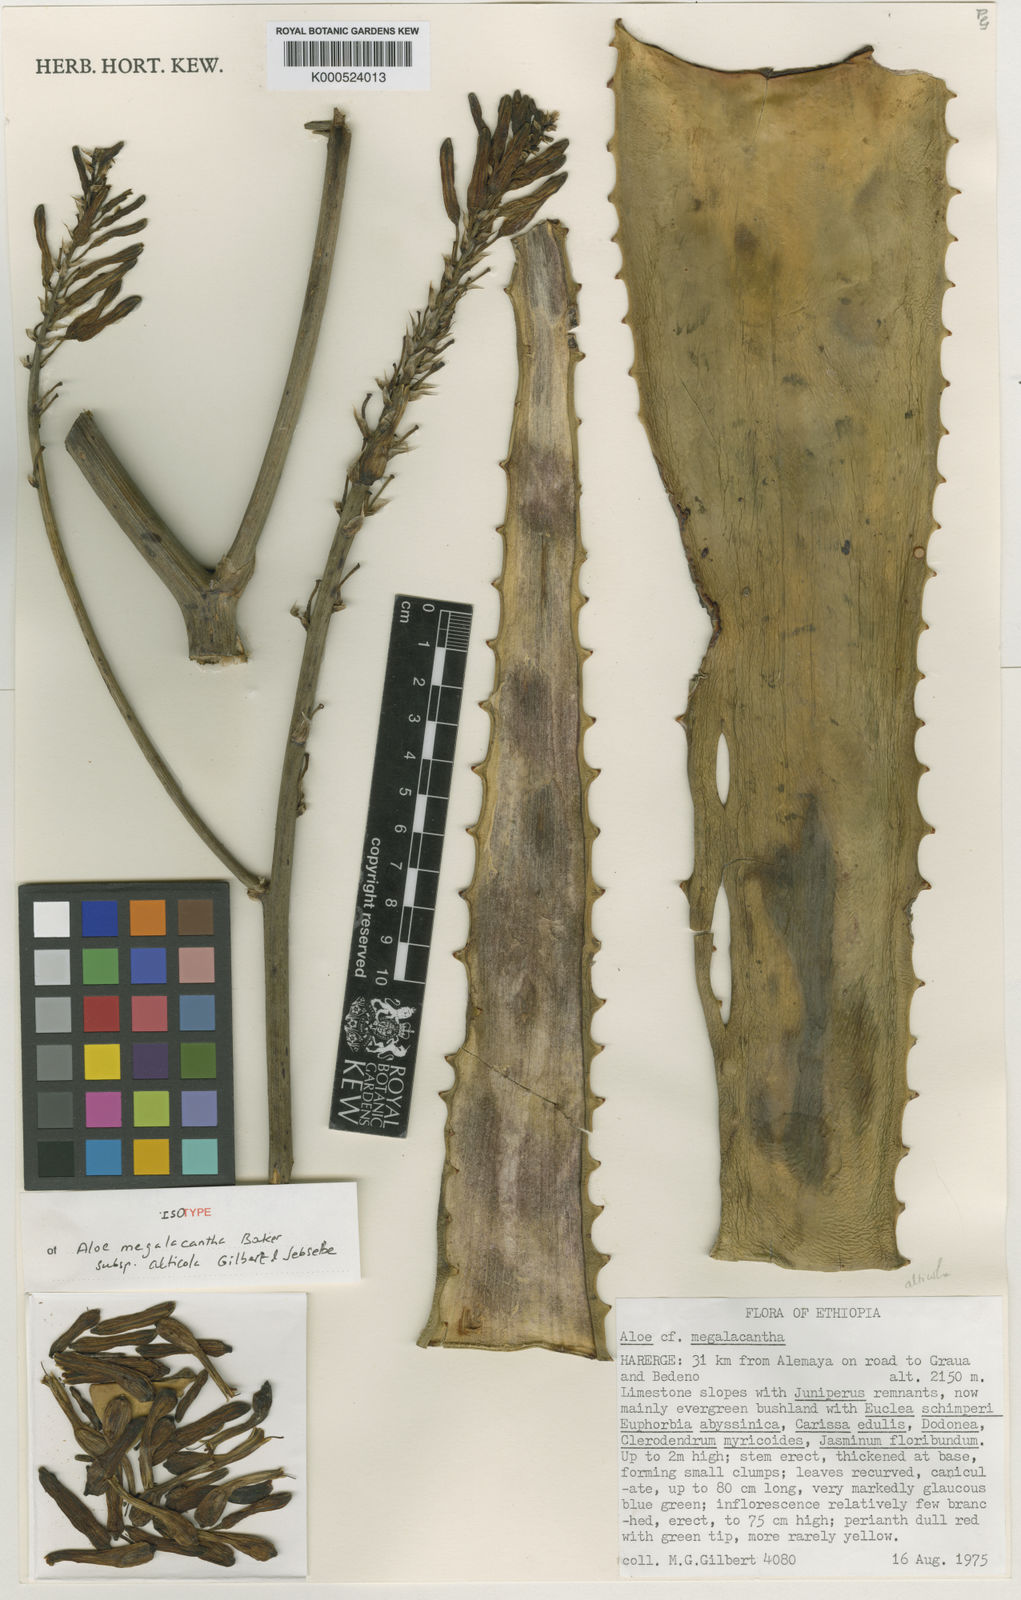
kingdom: Plantae
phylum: Tracheophyta
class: Liliopsida
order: Asparagales
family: Asphodelaceae
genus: Aloe
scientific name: Aloe megalacantha
